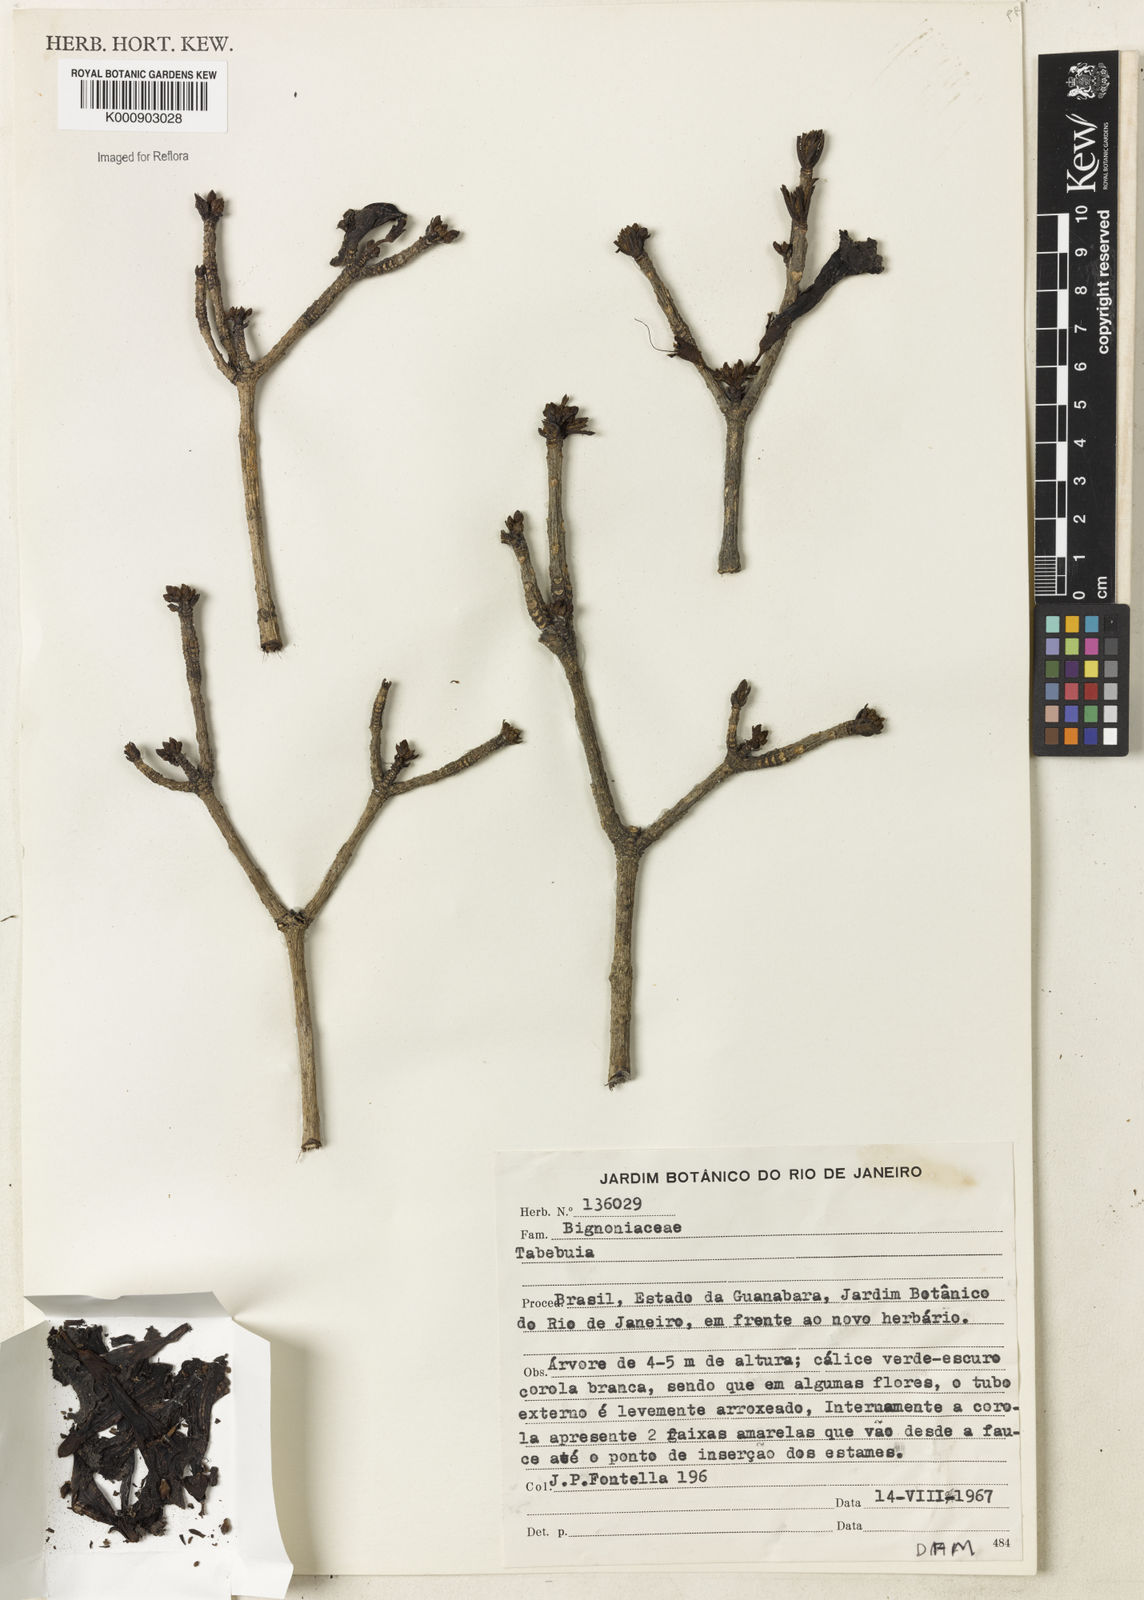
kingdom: Plantae
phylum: Tracheophyta
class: Magnoliopsida
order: Lamiales
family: Bignoniaceae
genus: Tabebuia
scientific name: Tabebuia
